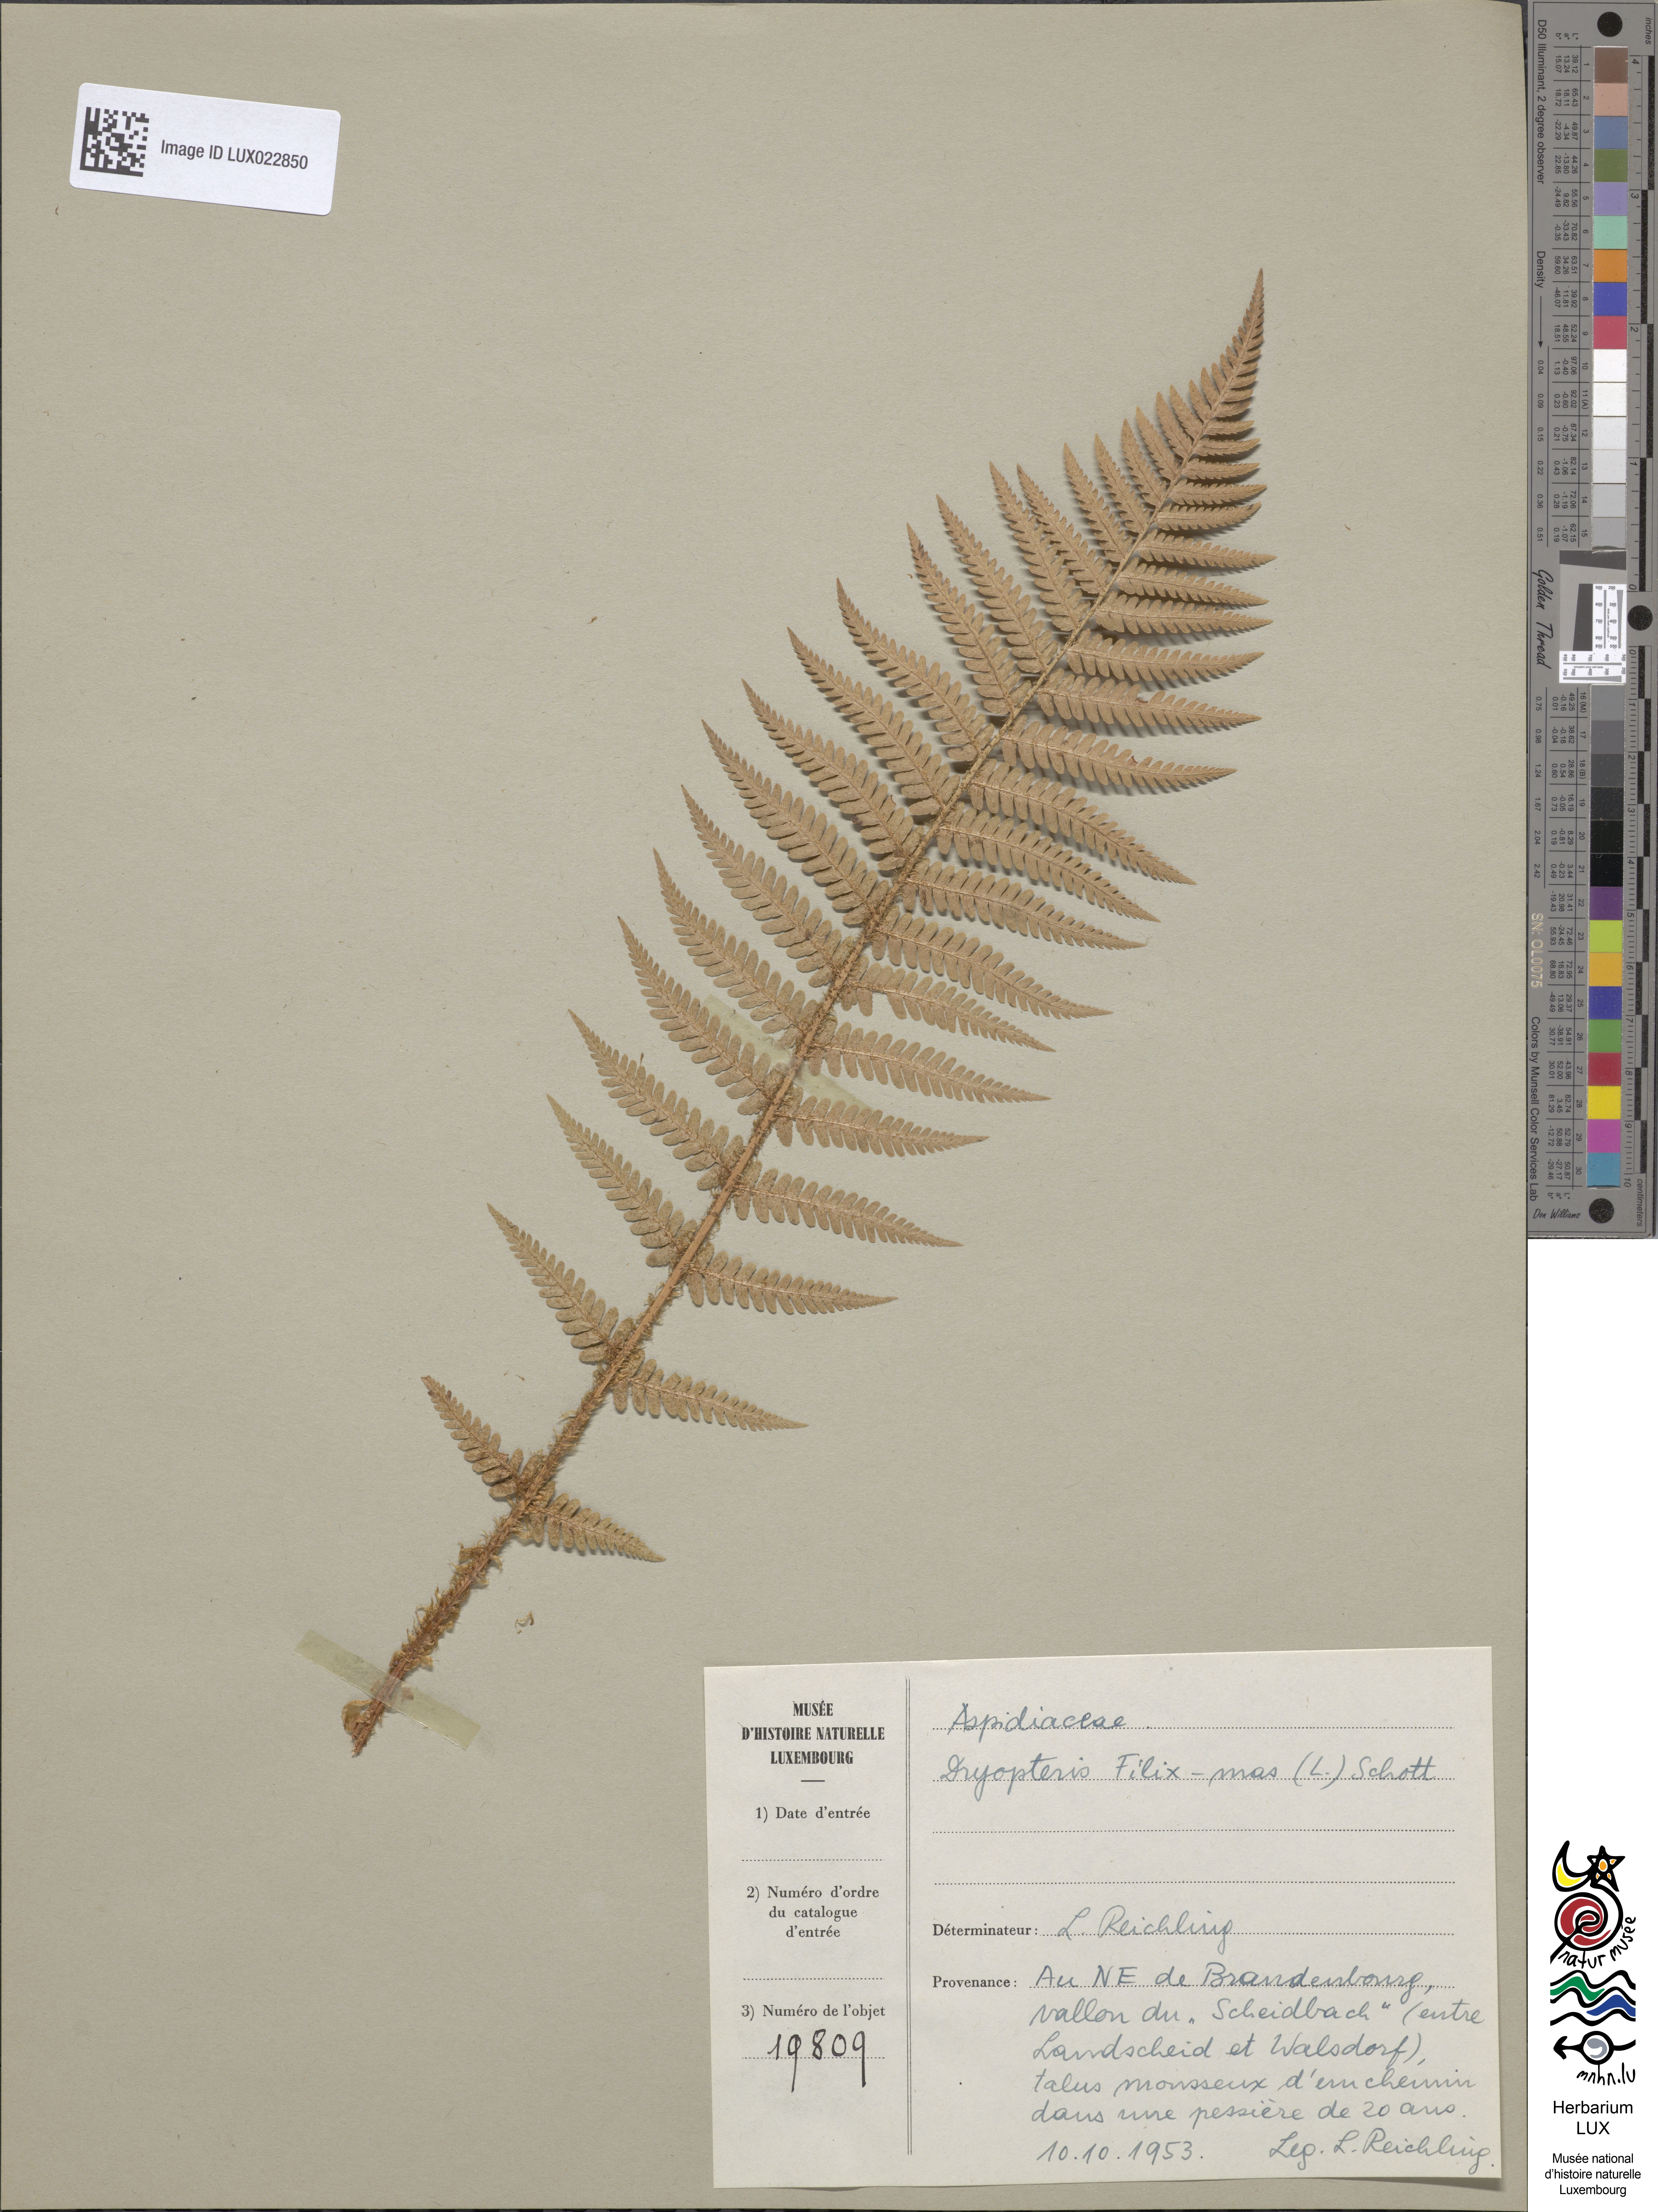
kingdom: Plantae
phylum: Tracheophyta
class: Polypodiopsida
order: Polypodiales
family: Dryopteridaceae
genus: Dryopteris
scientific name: Dryopteris filix-mas
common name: Male fern
